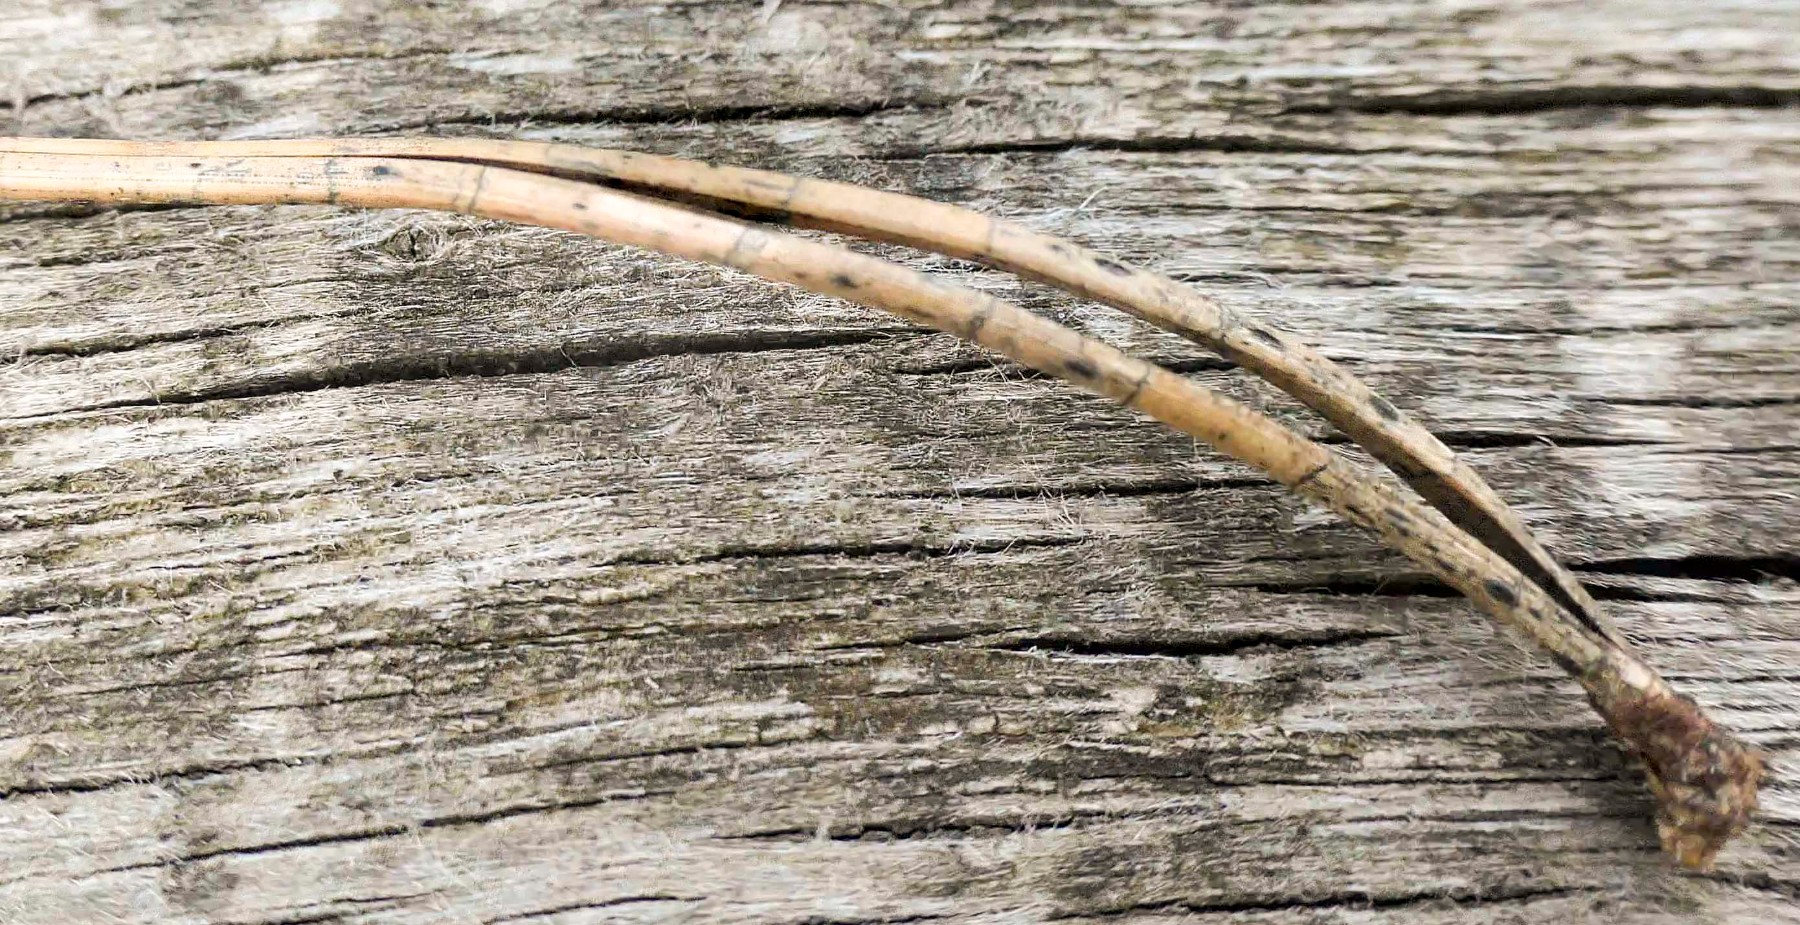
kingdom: Fungi
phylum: Ascomycota
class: Leotiomycetes
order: Rhytismatales
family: Rhytismataceae
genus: Lophodermium
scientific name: Lophodermium pinastri
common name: fyrre-fureplet
